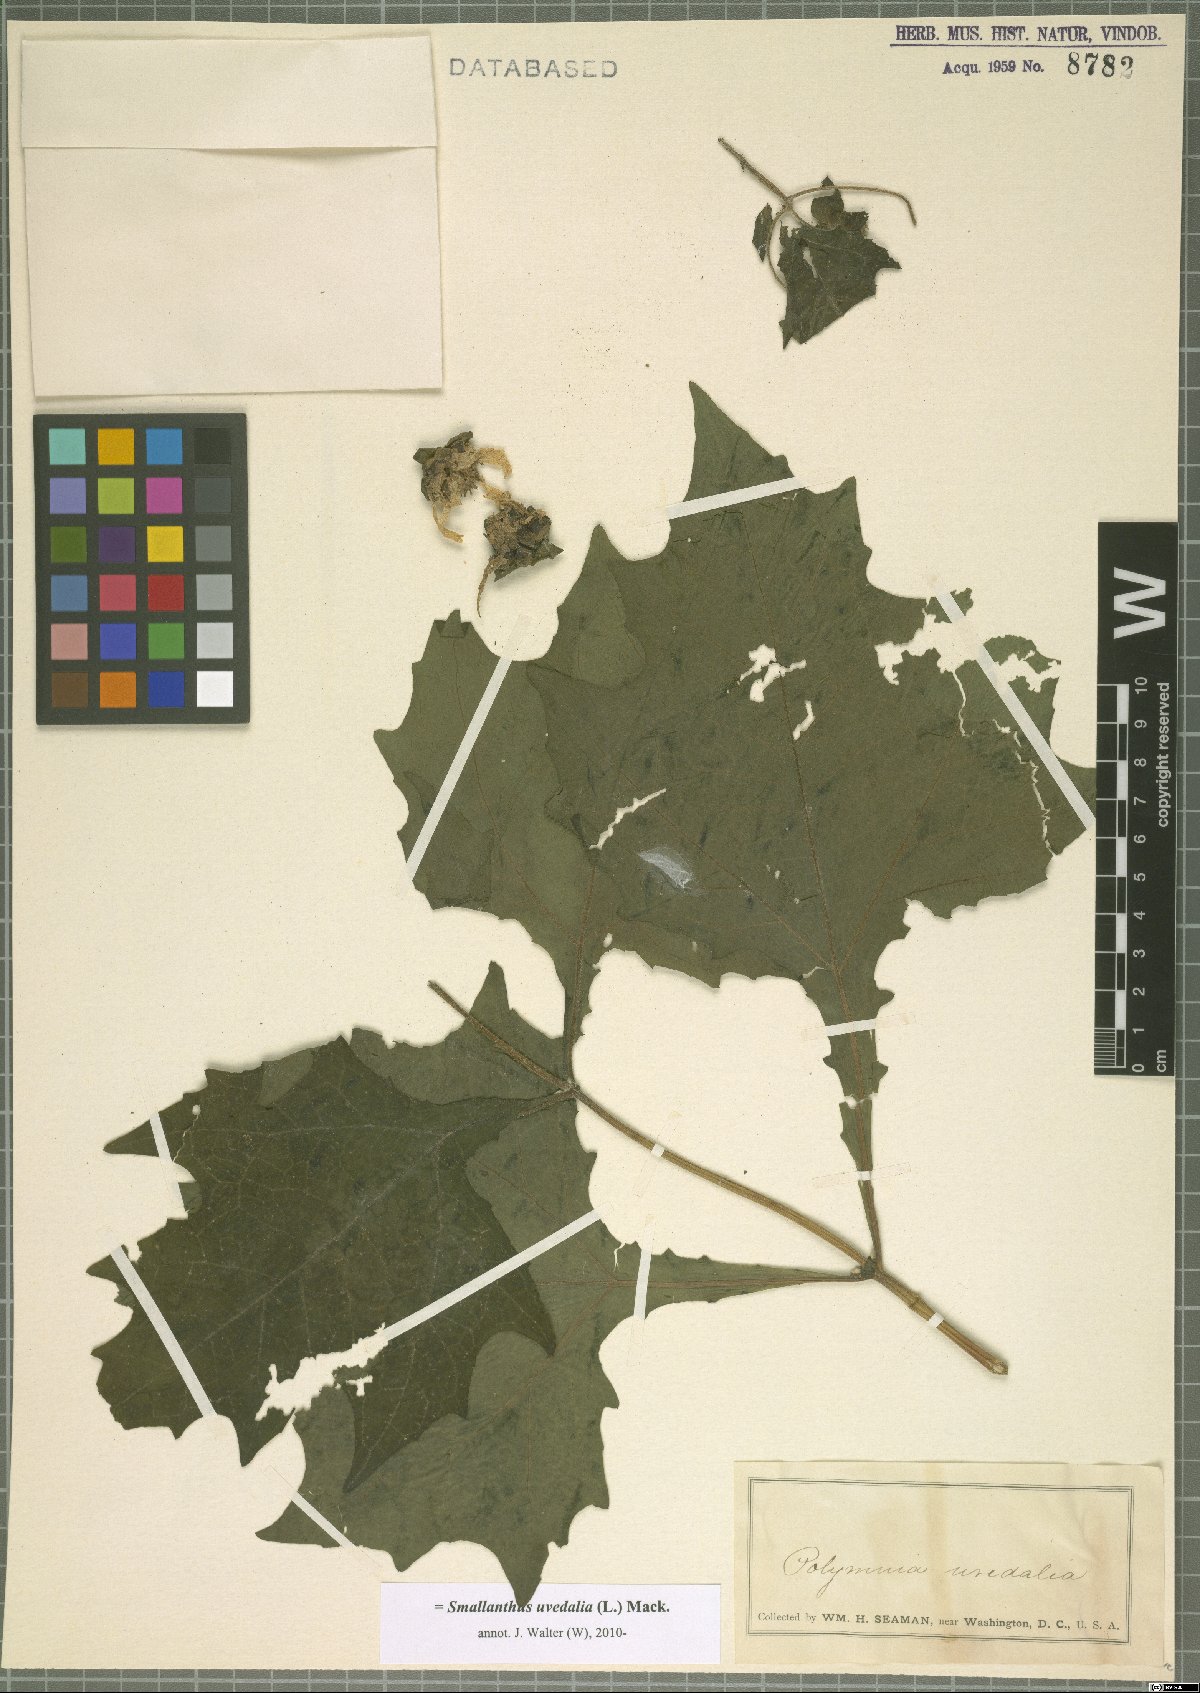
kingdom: Plantae
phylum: Tracheophyta
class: Magnoliopsida
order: Asterales
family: Asteraceae
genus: Smallanthus
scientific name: Smallanthus uvedalia
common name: Bear's-foot
